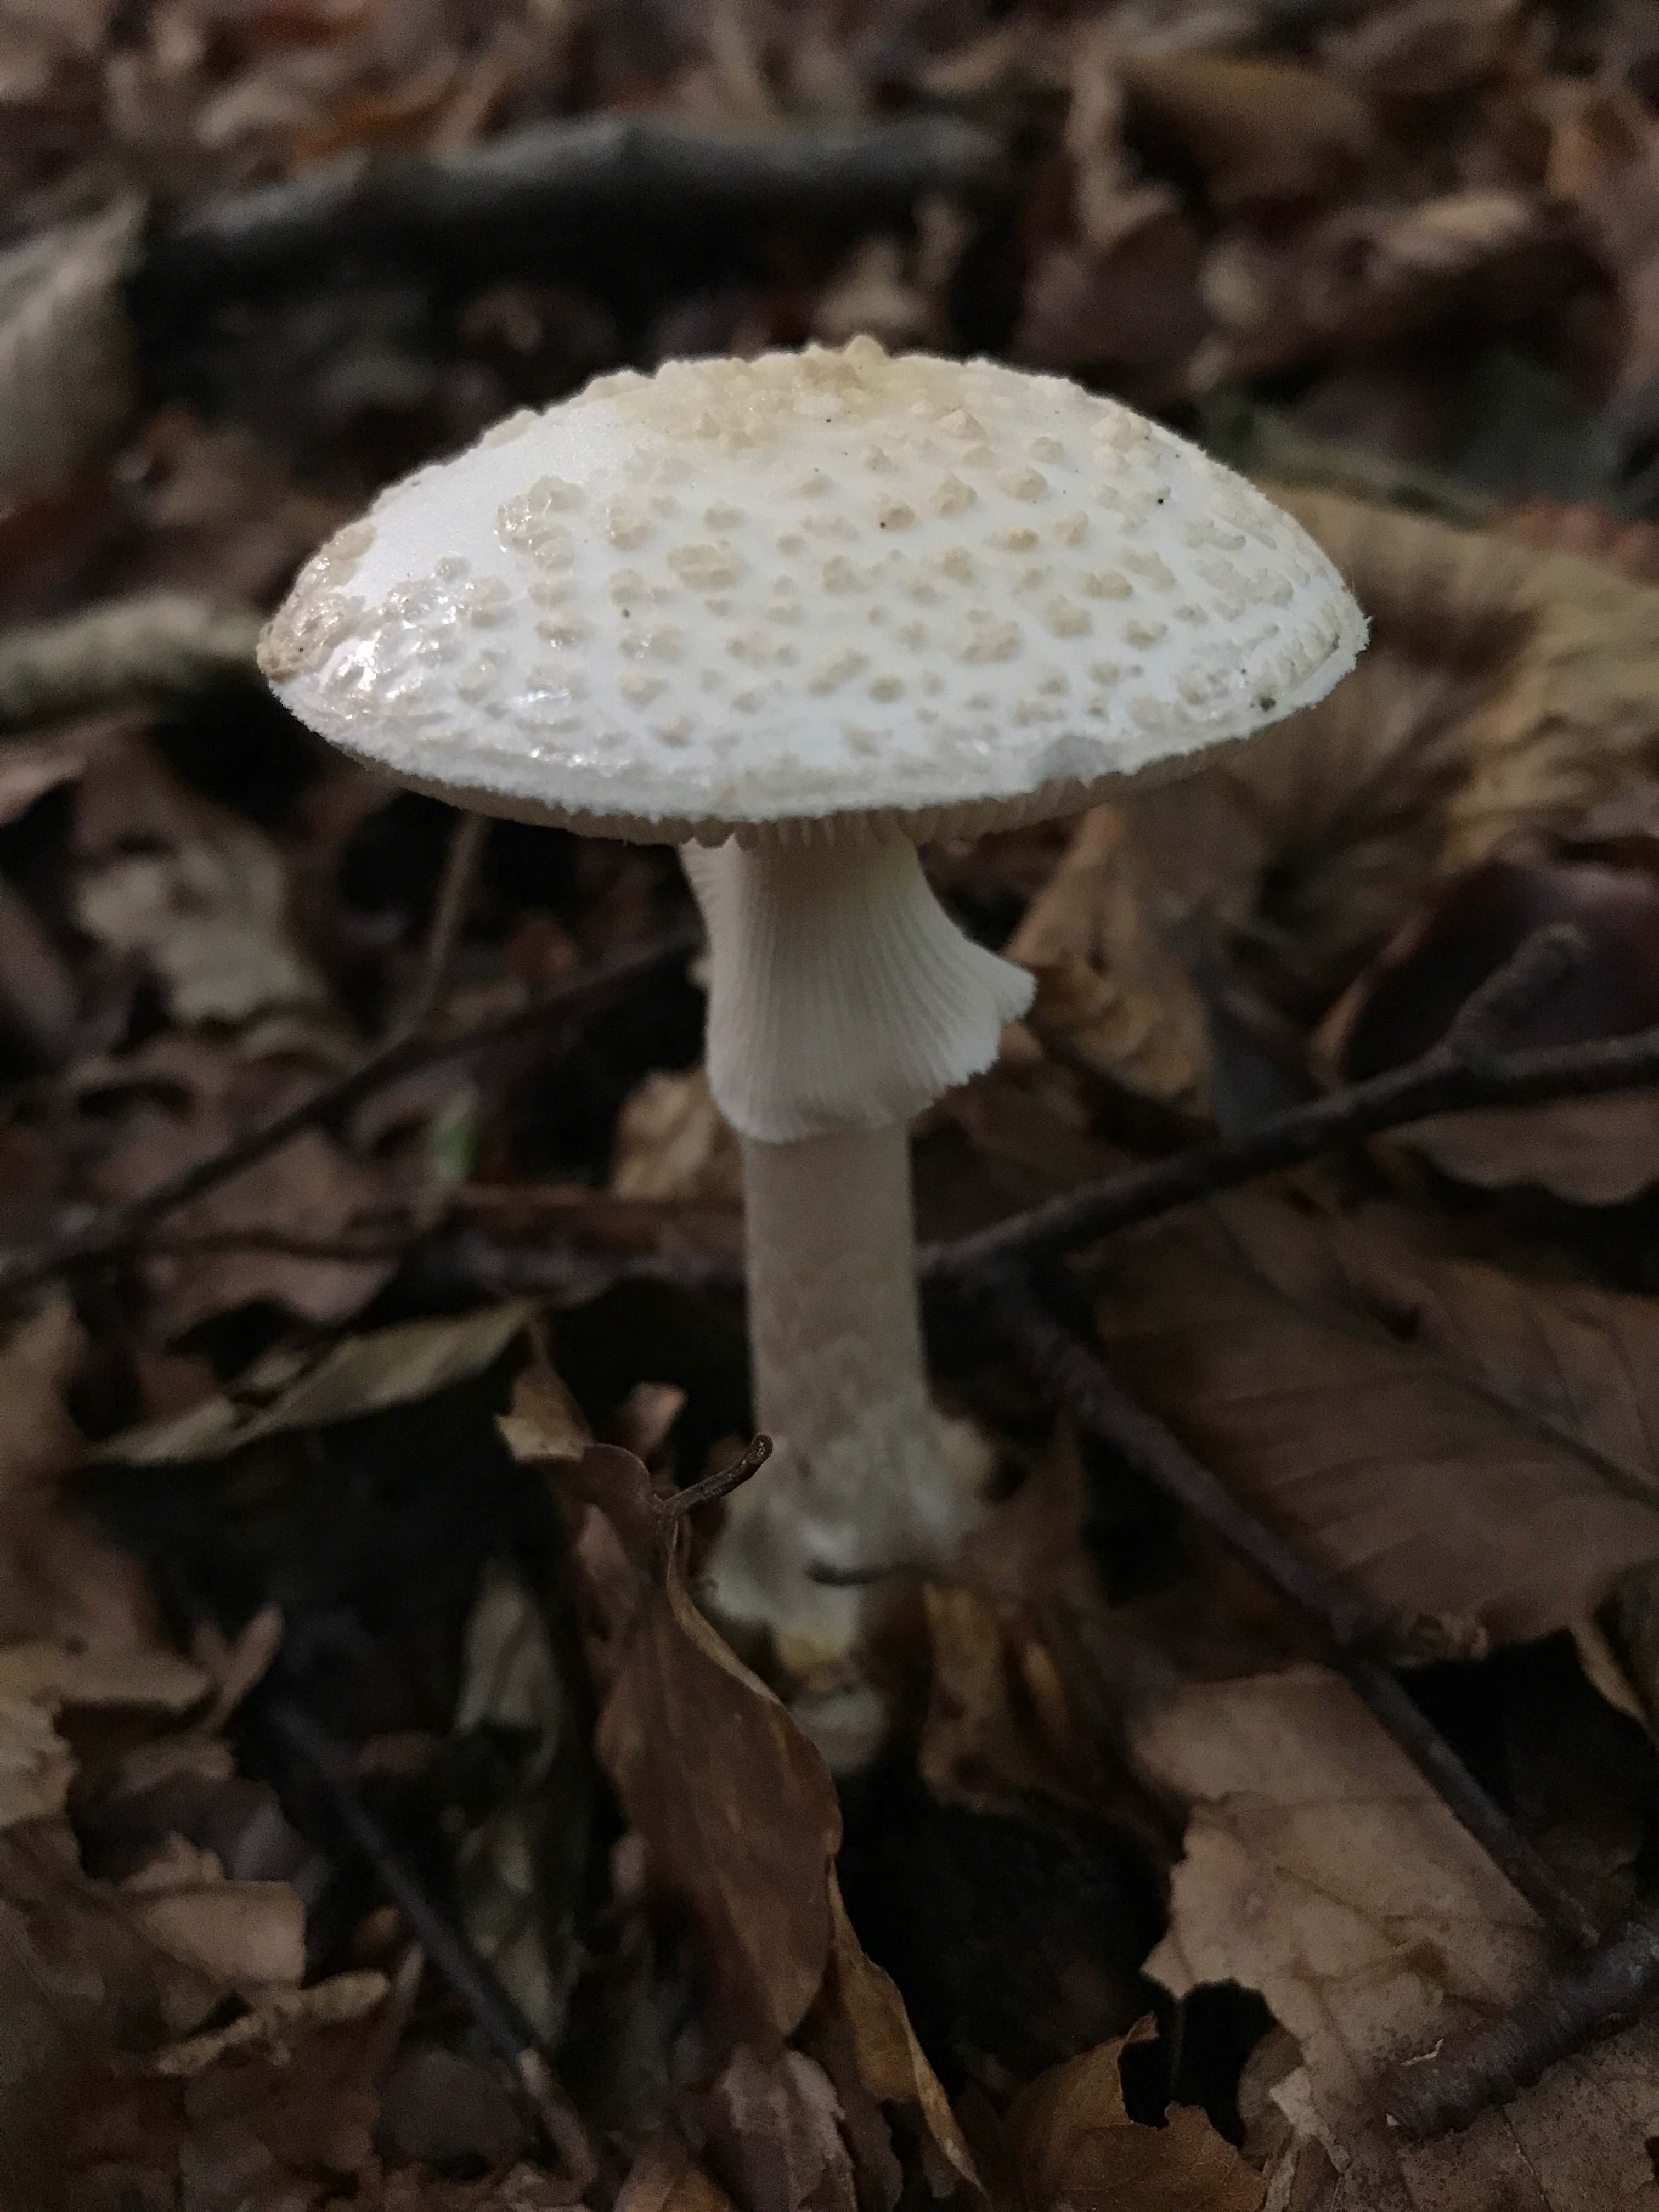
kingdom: Fungi
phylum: Basidiomycota
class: Agaricomycetes
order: Agaricales
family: Amanitaceae
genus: Amanita
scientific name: Amanita citrina
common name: False death-cap
